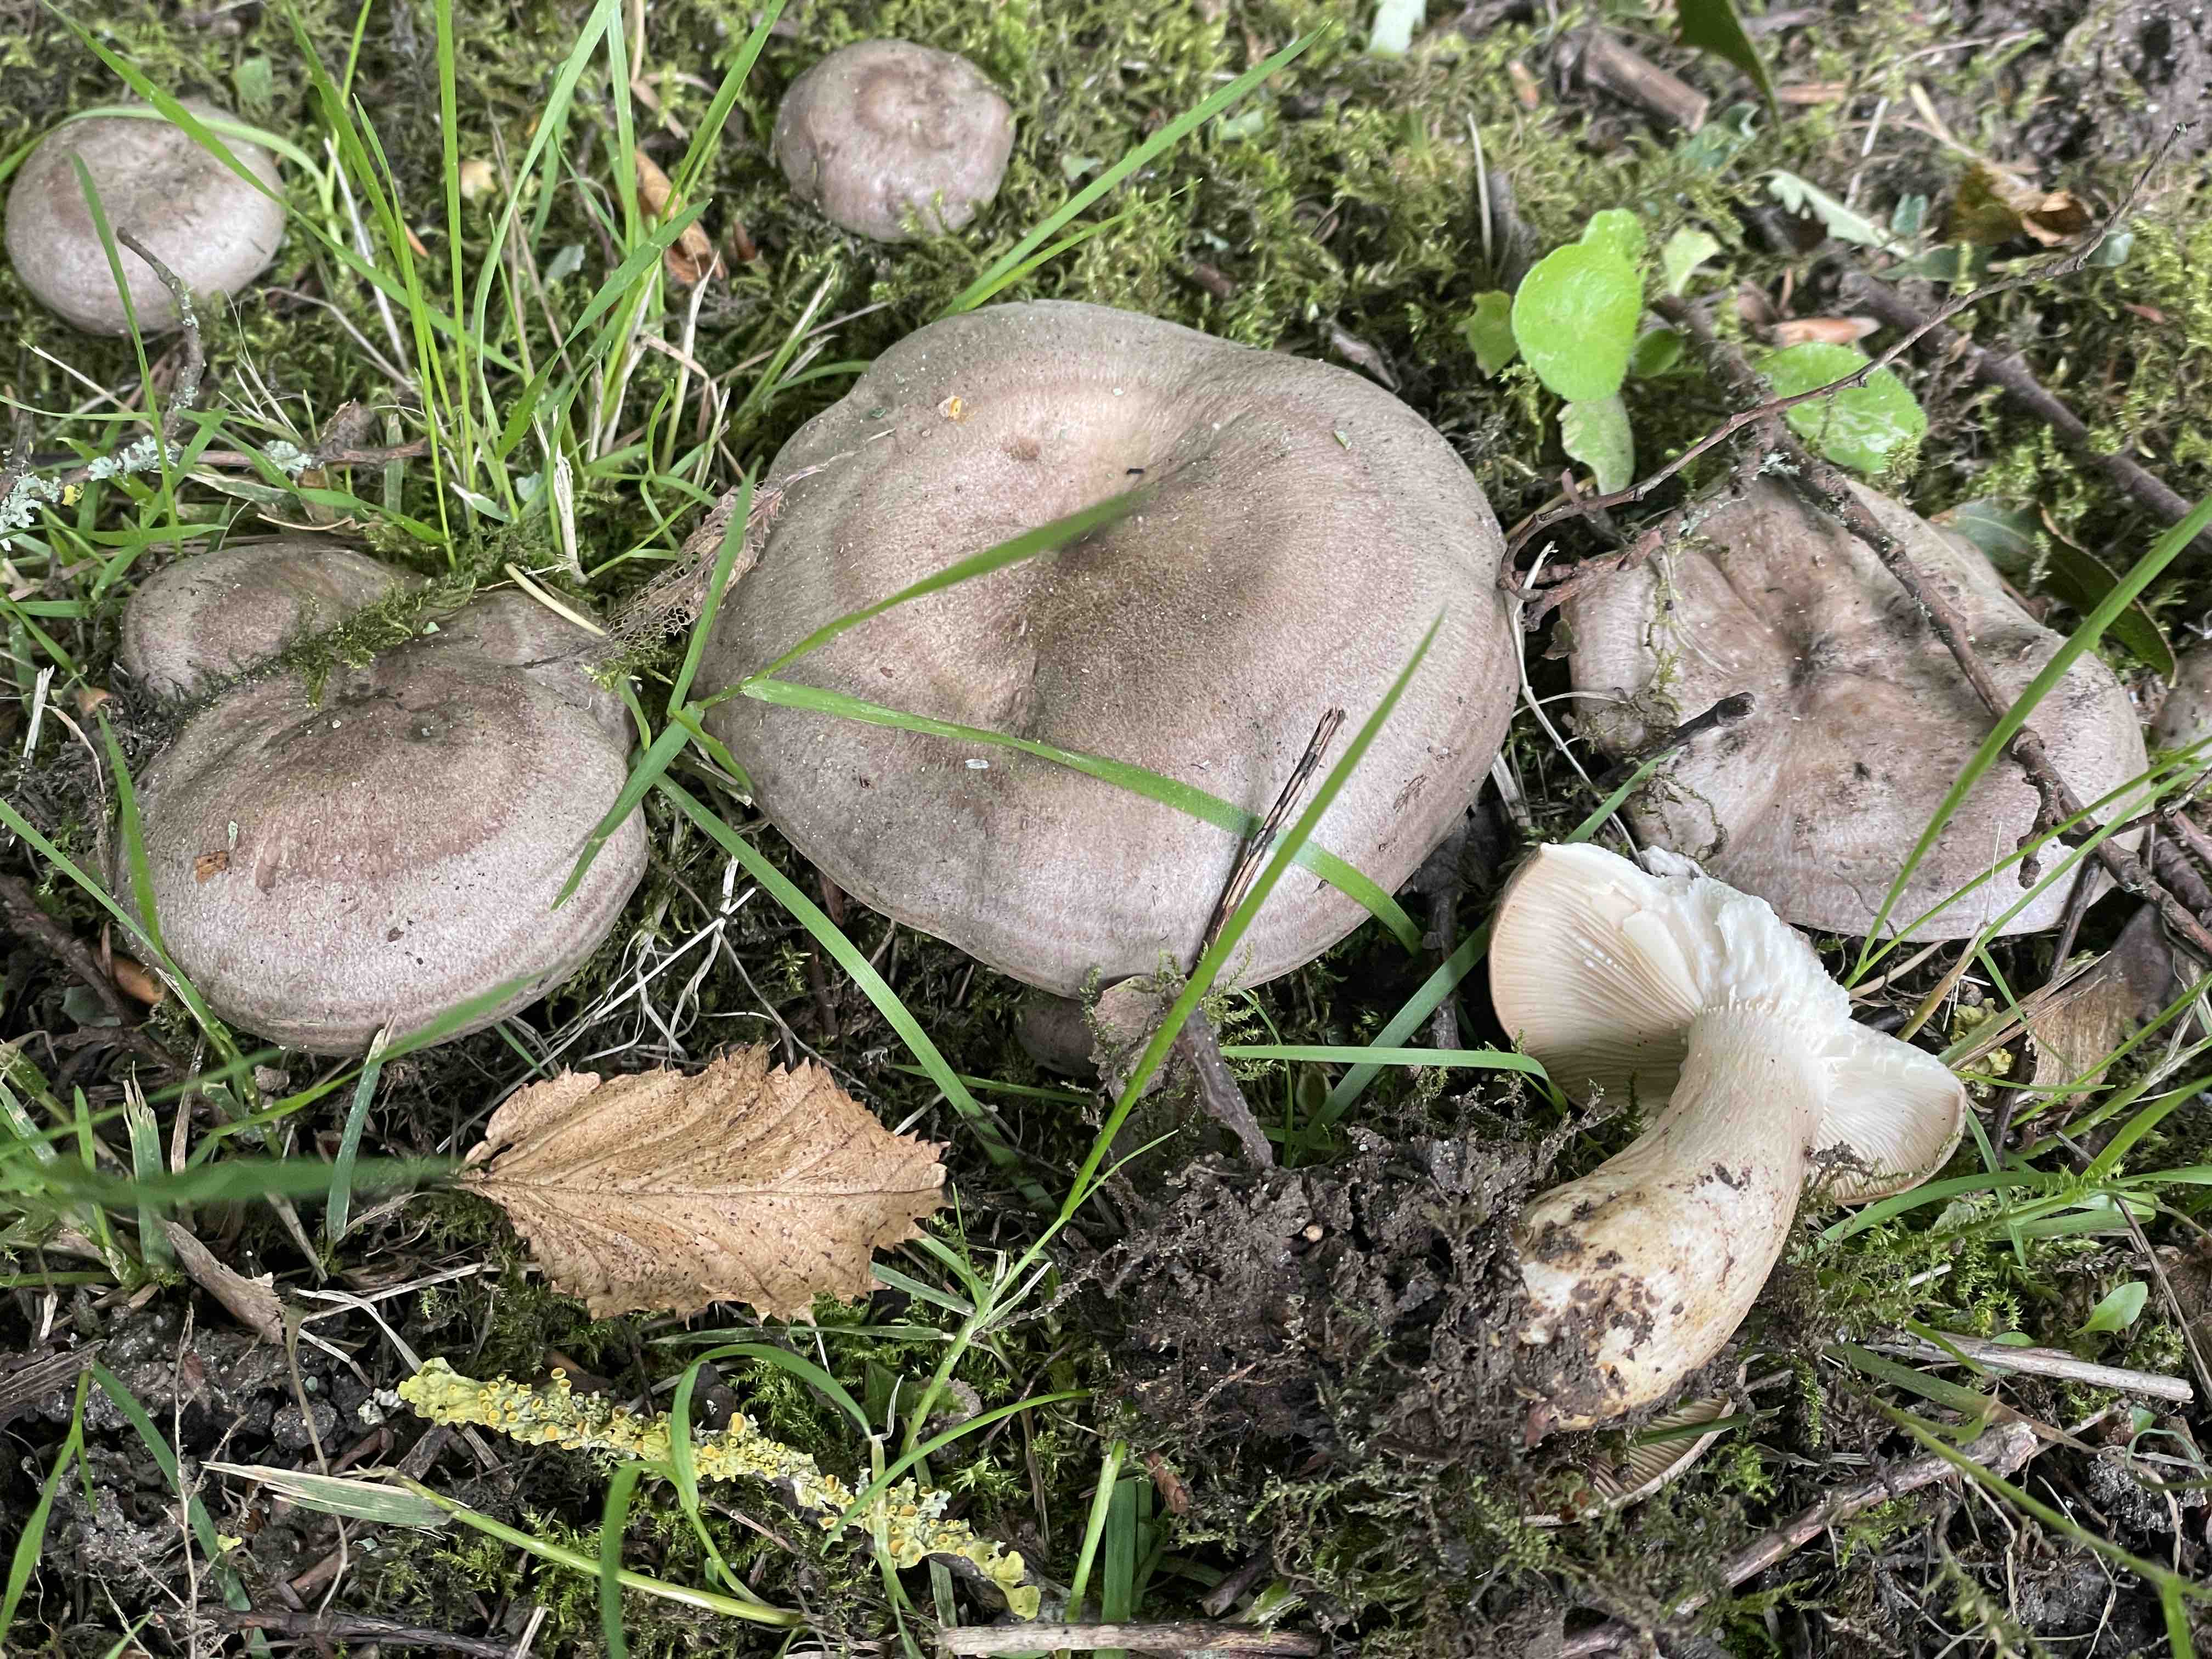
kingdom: Fungi
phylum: Basidiomycota
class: Agaricomycetes
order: Russulales
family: Russulaceae
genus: Lactarius
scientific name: Lactarius circellatus
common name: avnbøg-mælkehat
